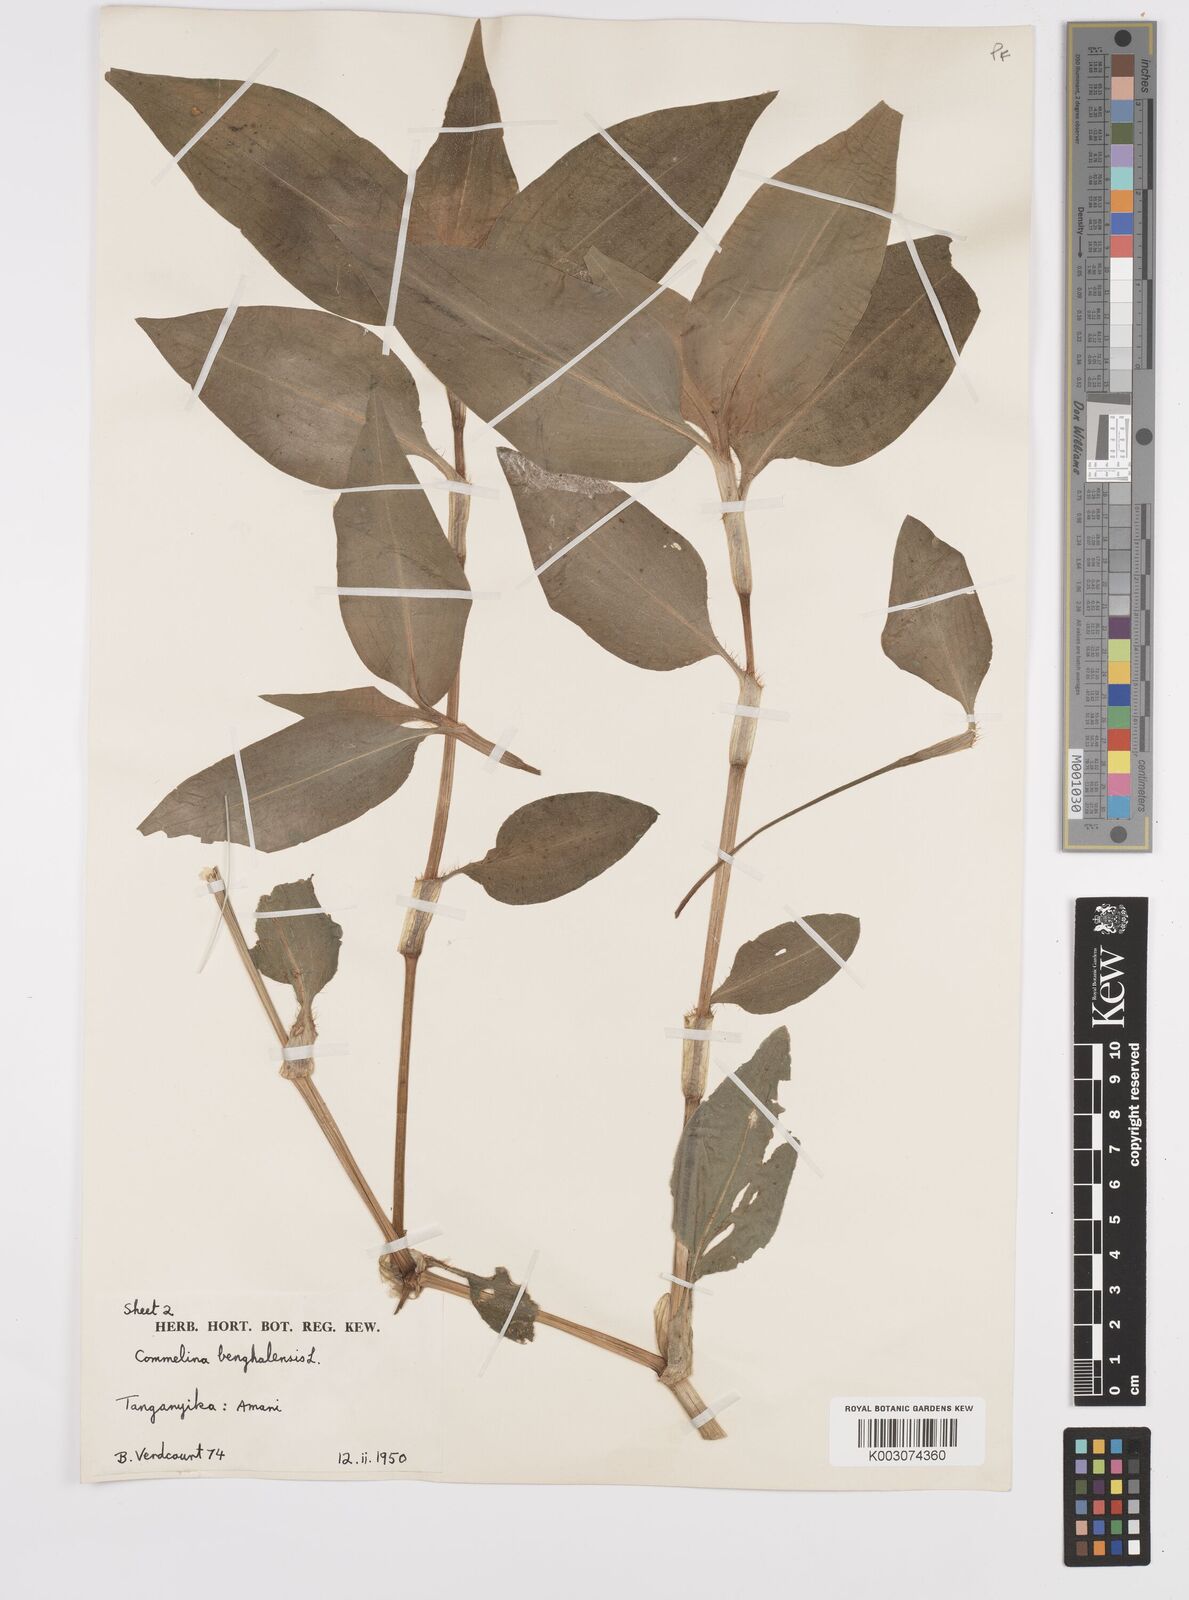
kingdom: Plantae
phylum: Tracheophyta
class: Liliopsida
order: Commelinales
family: Commelinaceae
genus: Commelina
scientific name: Commelina benghalensis
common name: Jio
